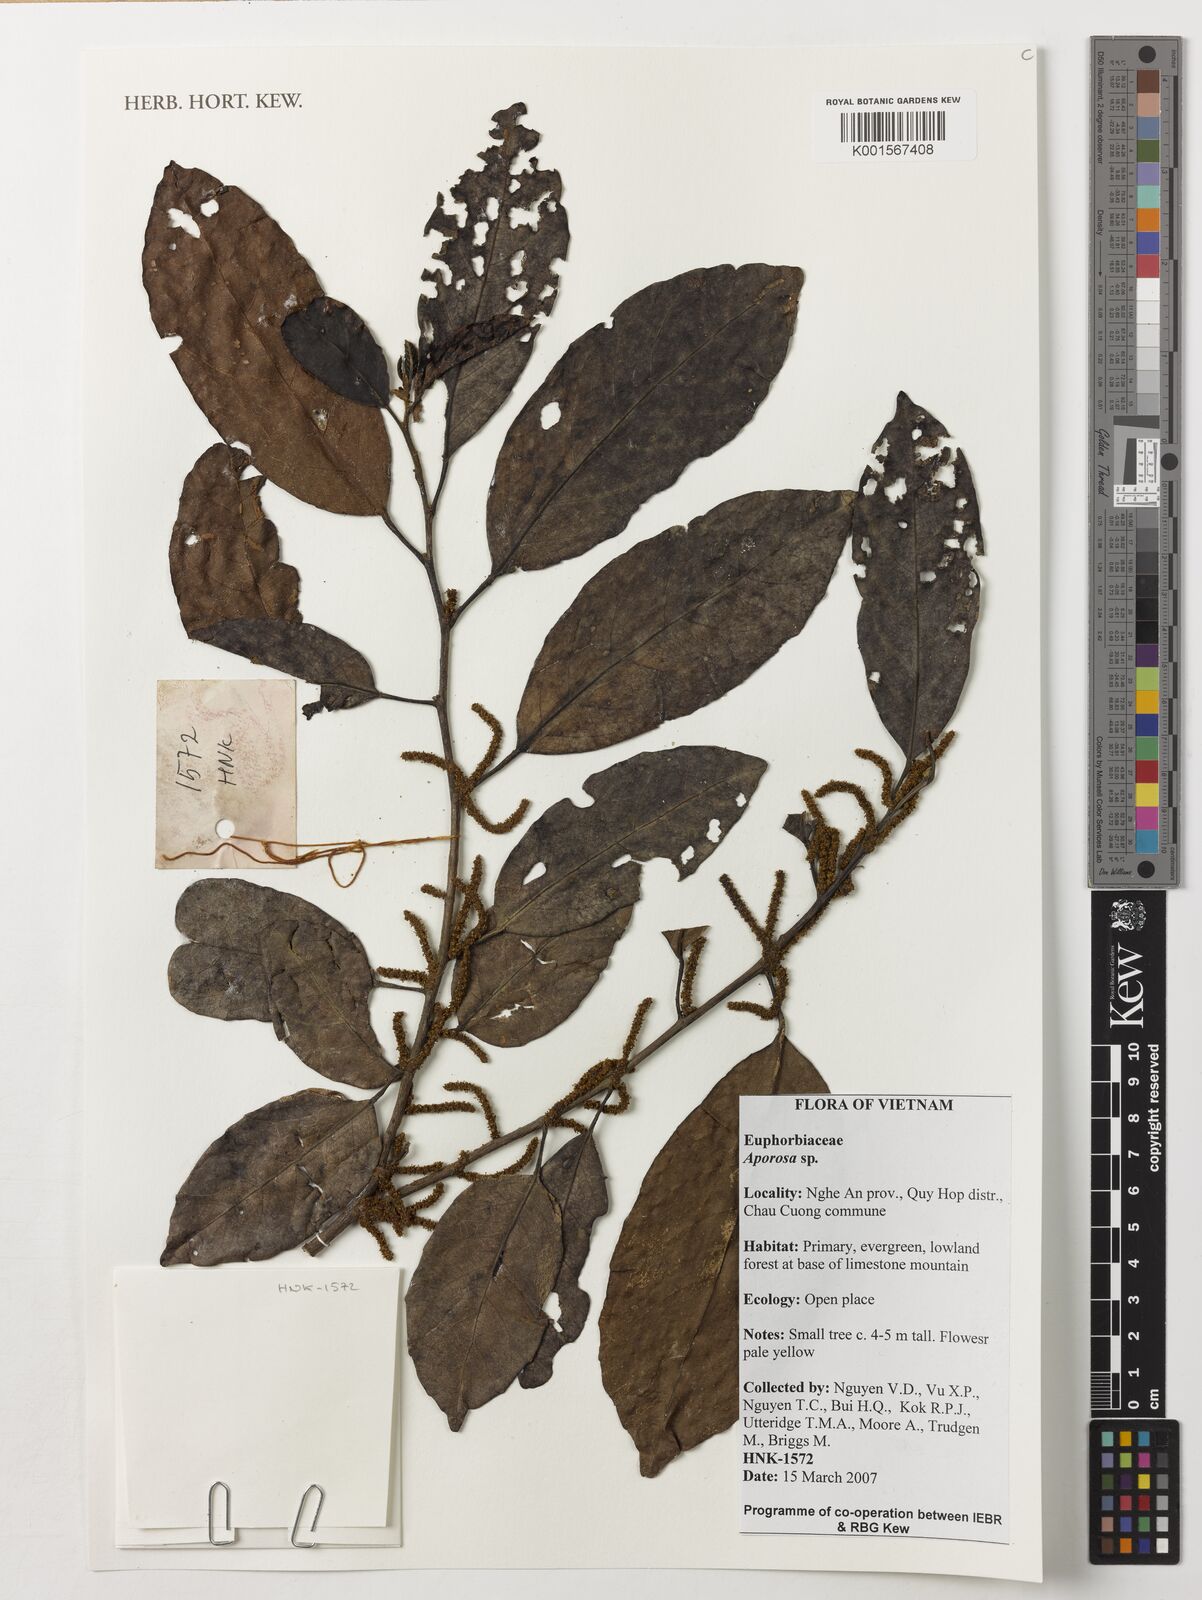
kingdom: Plantae
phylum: Tracheophyta
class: Magnoliopsida
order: Malpighiales
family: Phyllanthaceae
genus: Aporosa
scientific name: Aporosa
